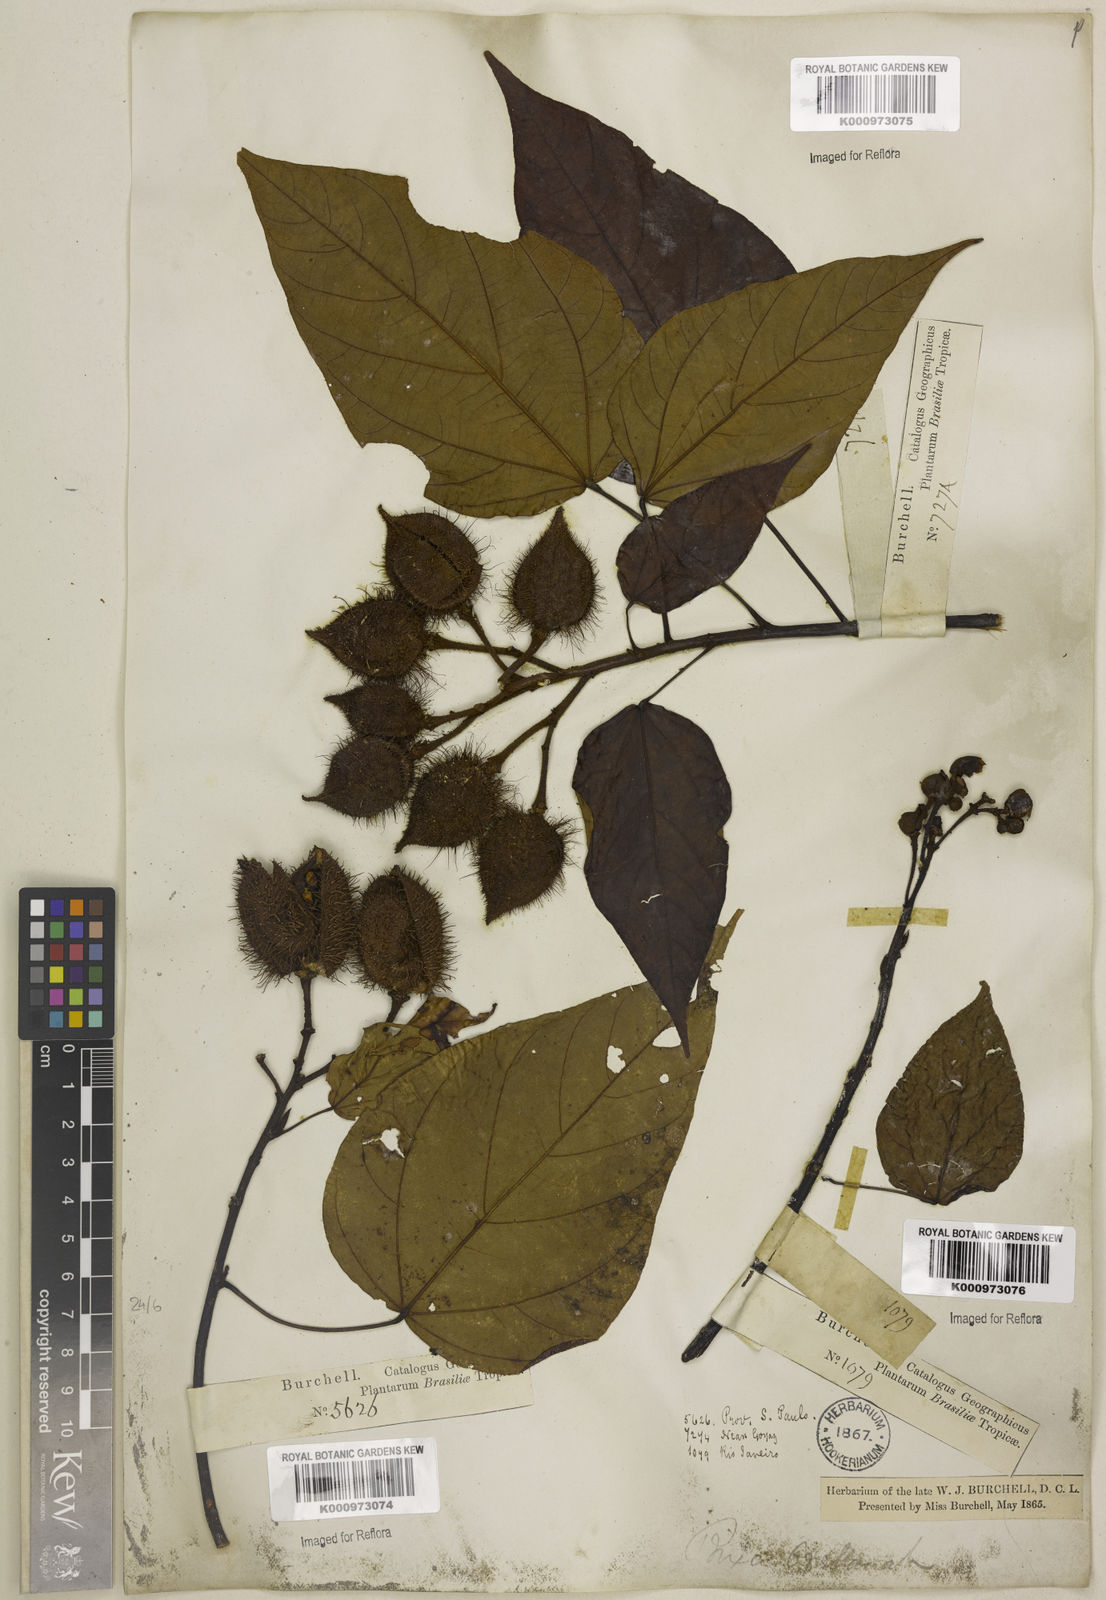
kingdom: Plantae
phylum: Tracheophyta
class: Magnoliopsida
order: Malvales
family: Bixaceae
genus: Bixa
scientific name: Bixa orellana
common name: Lipsticktree
